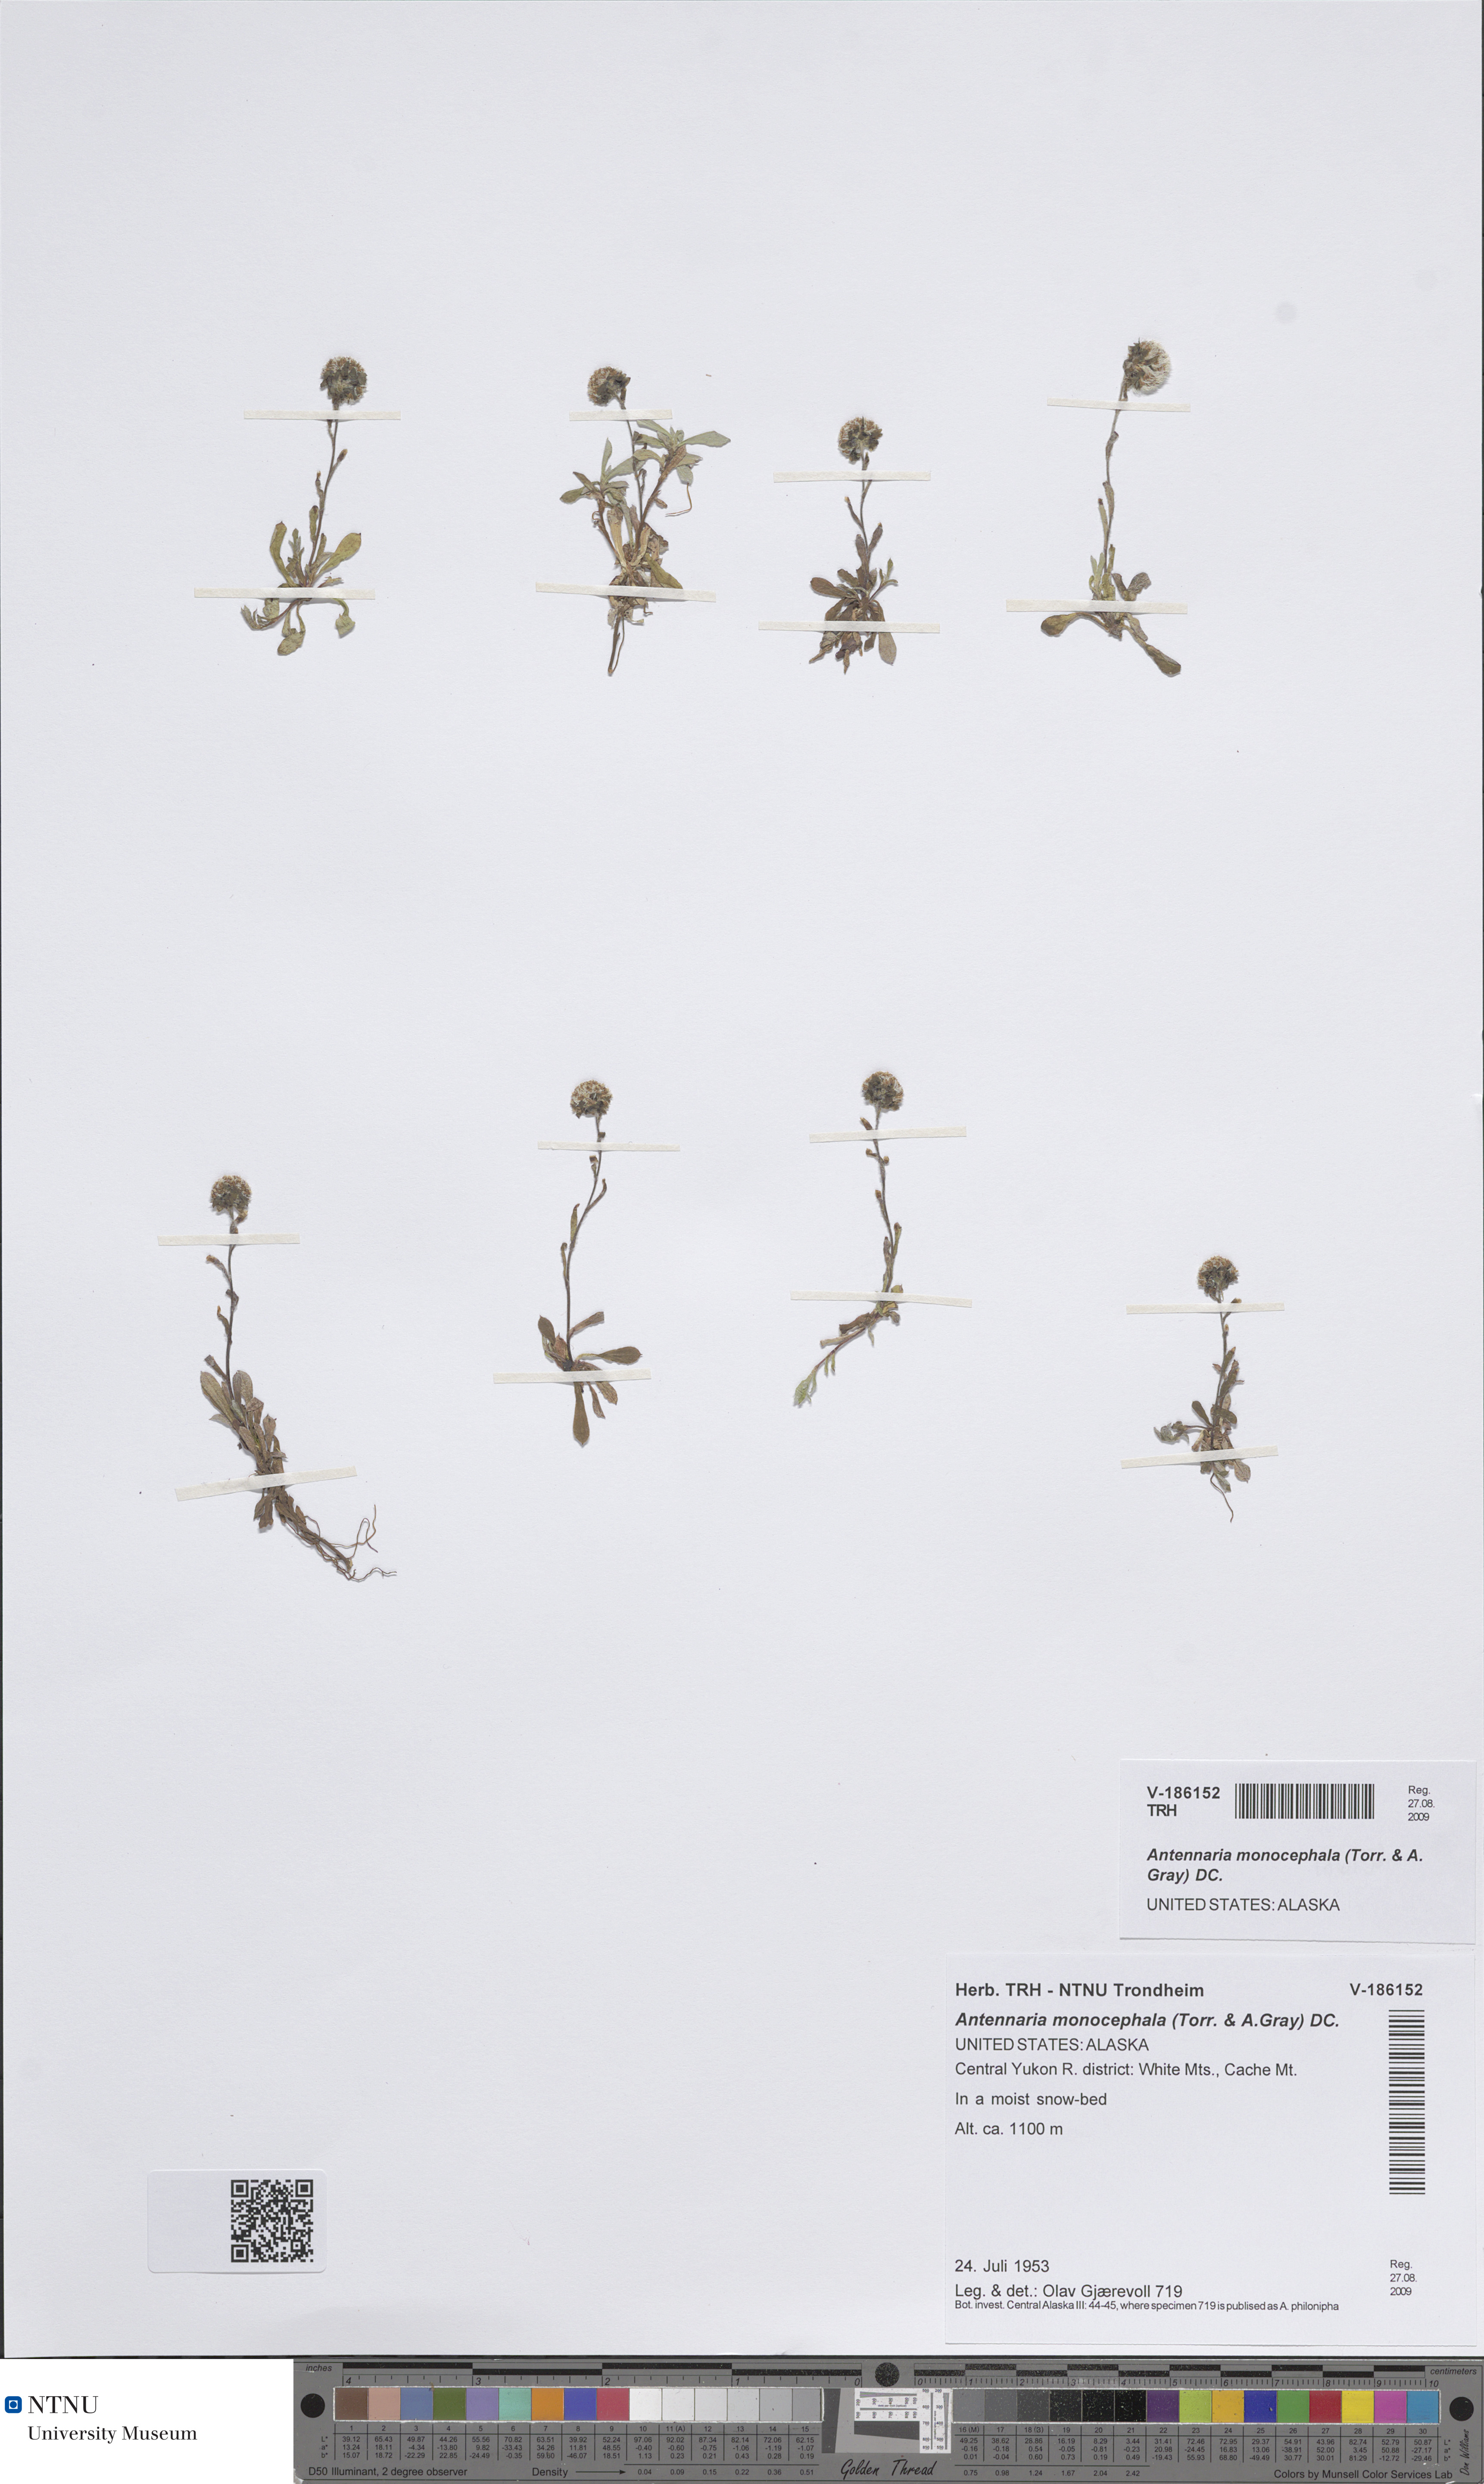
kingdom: Plantae
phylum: Tracheophyta
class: Magnoliopsida
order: Asterales
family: Asteraceae
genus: Antennaria
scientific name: Antennaria monocephala
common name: Pygmy pussytoes
